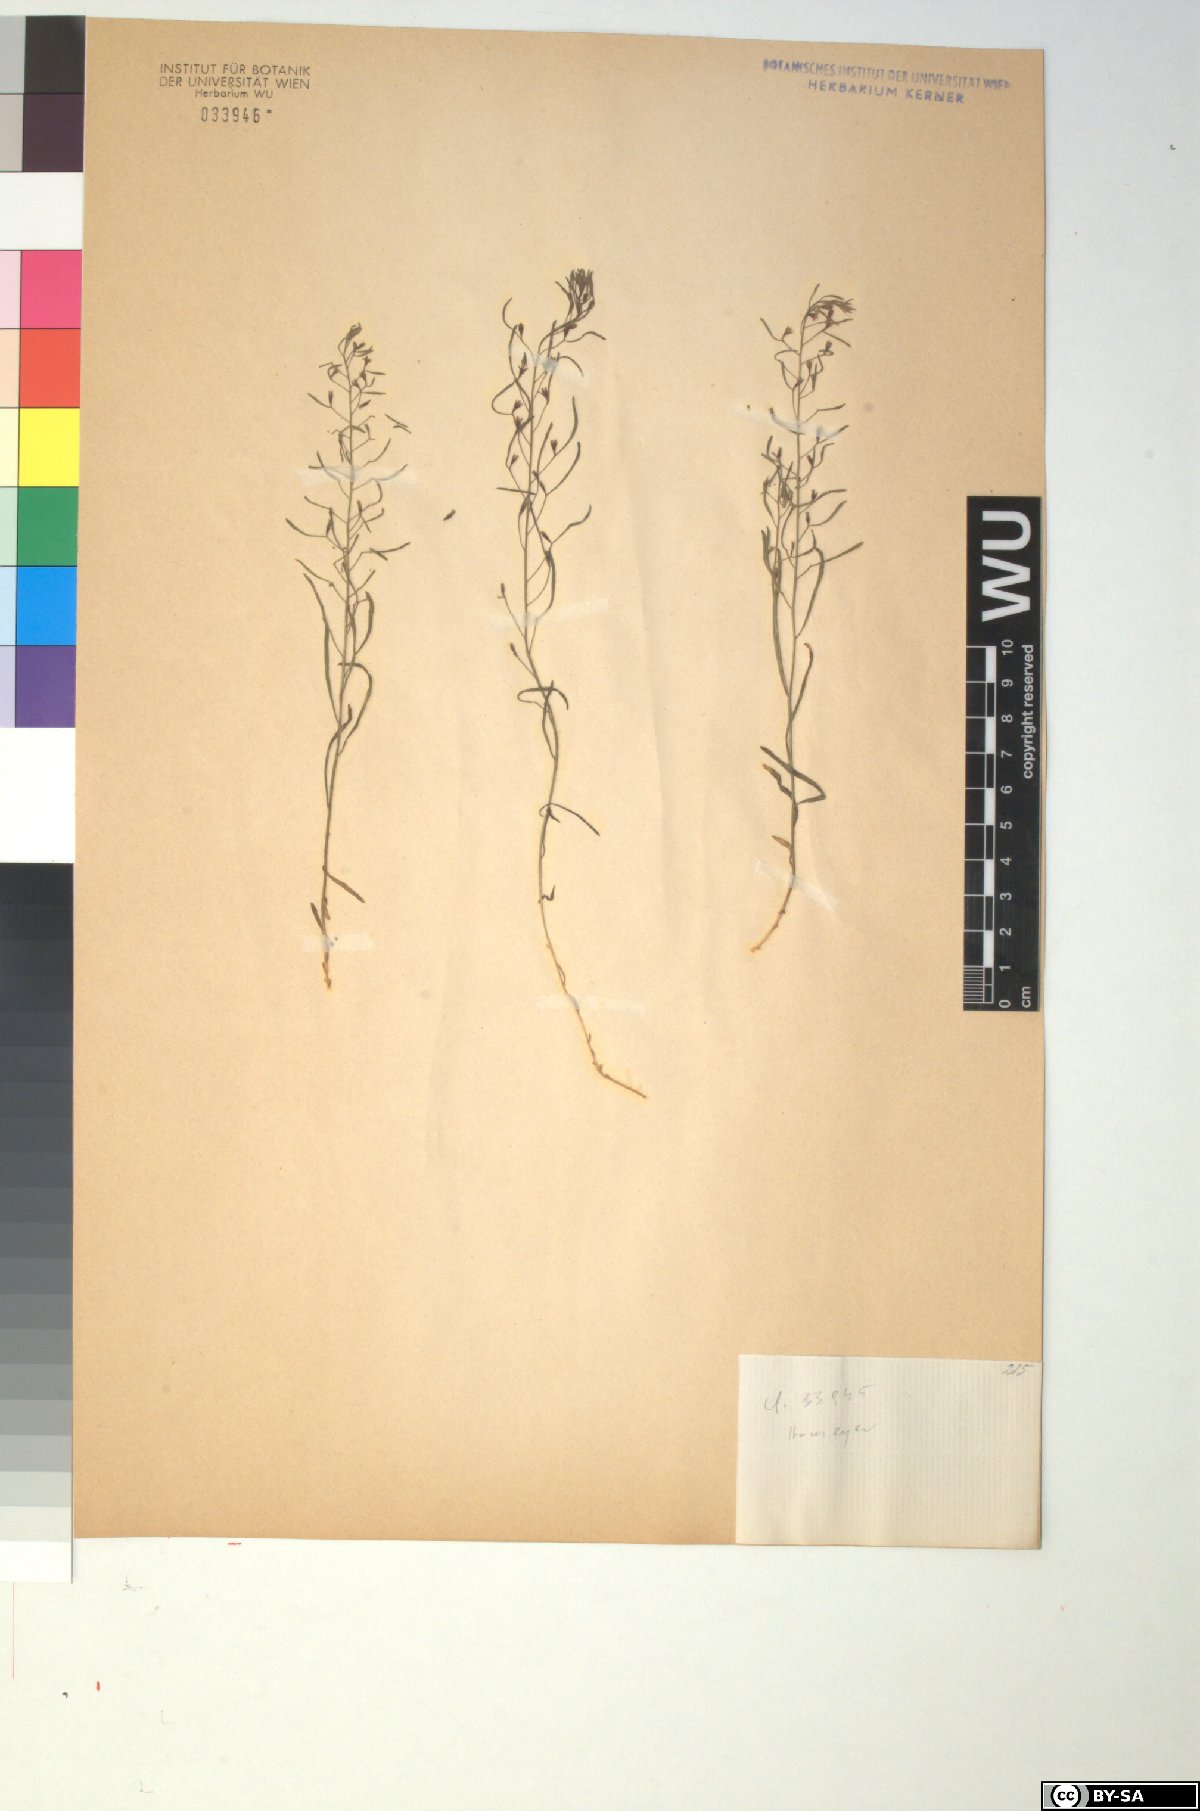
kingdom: Plantae
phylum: Tracheophyta
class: Magnoliopsida
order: Santalales
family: Thesiaceae
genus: Thesium
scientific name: Thesium ebracteatum
